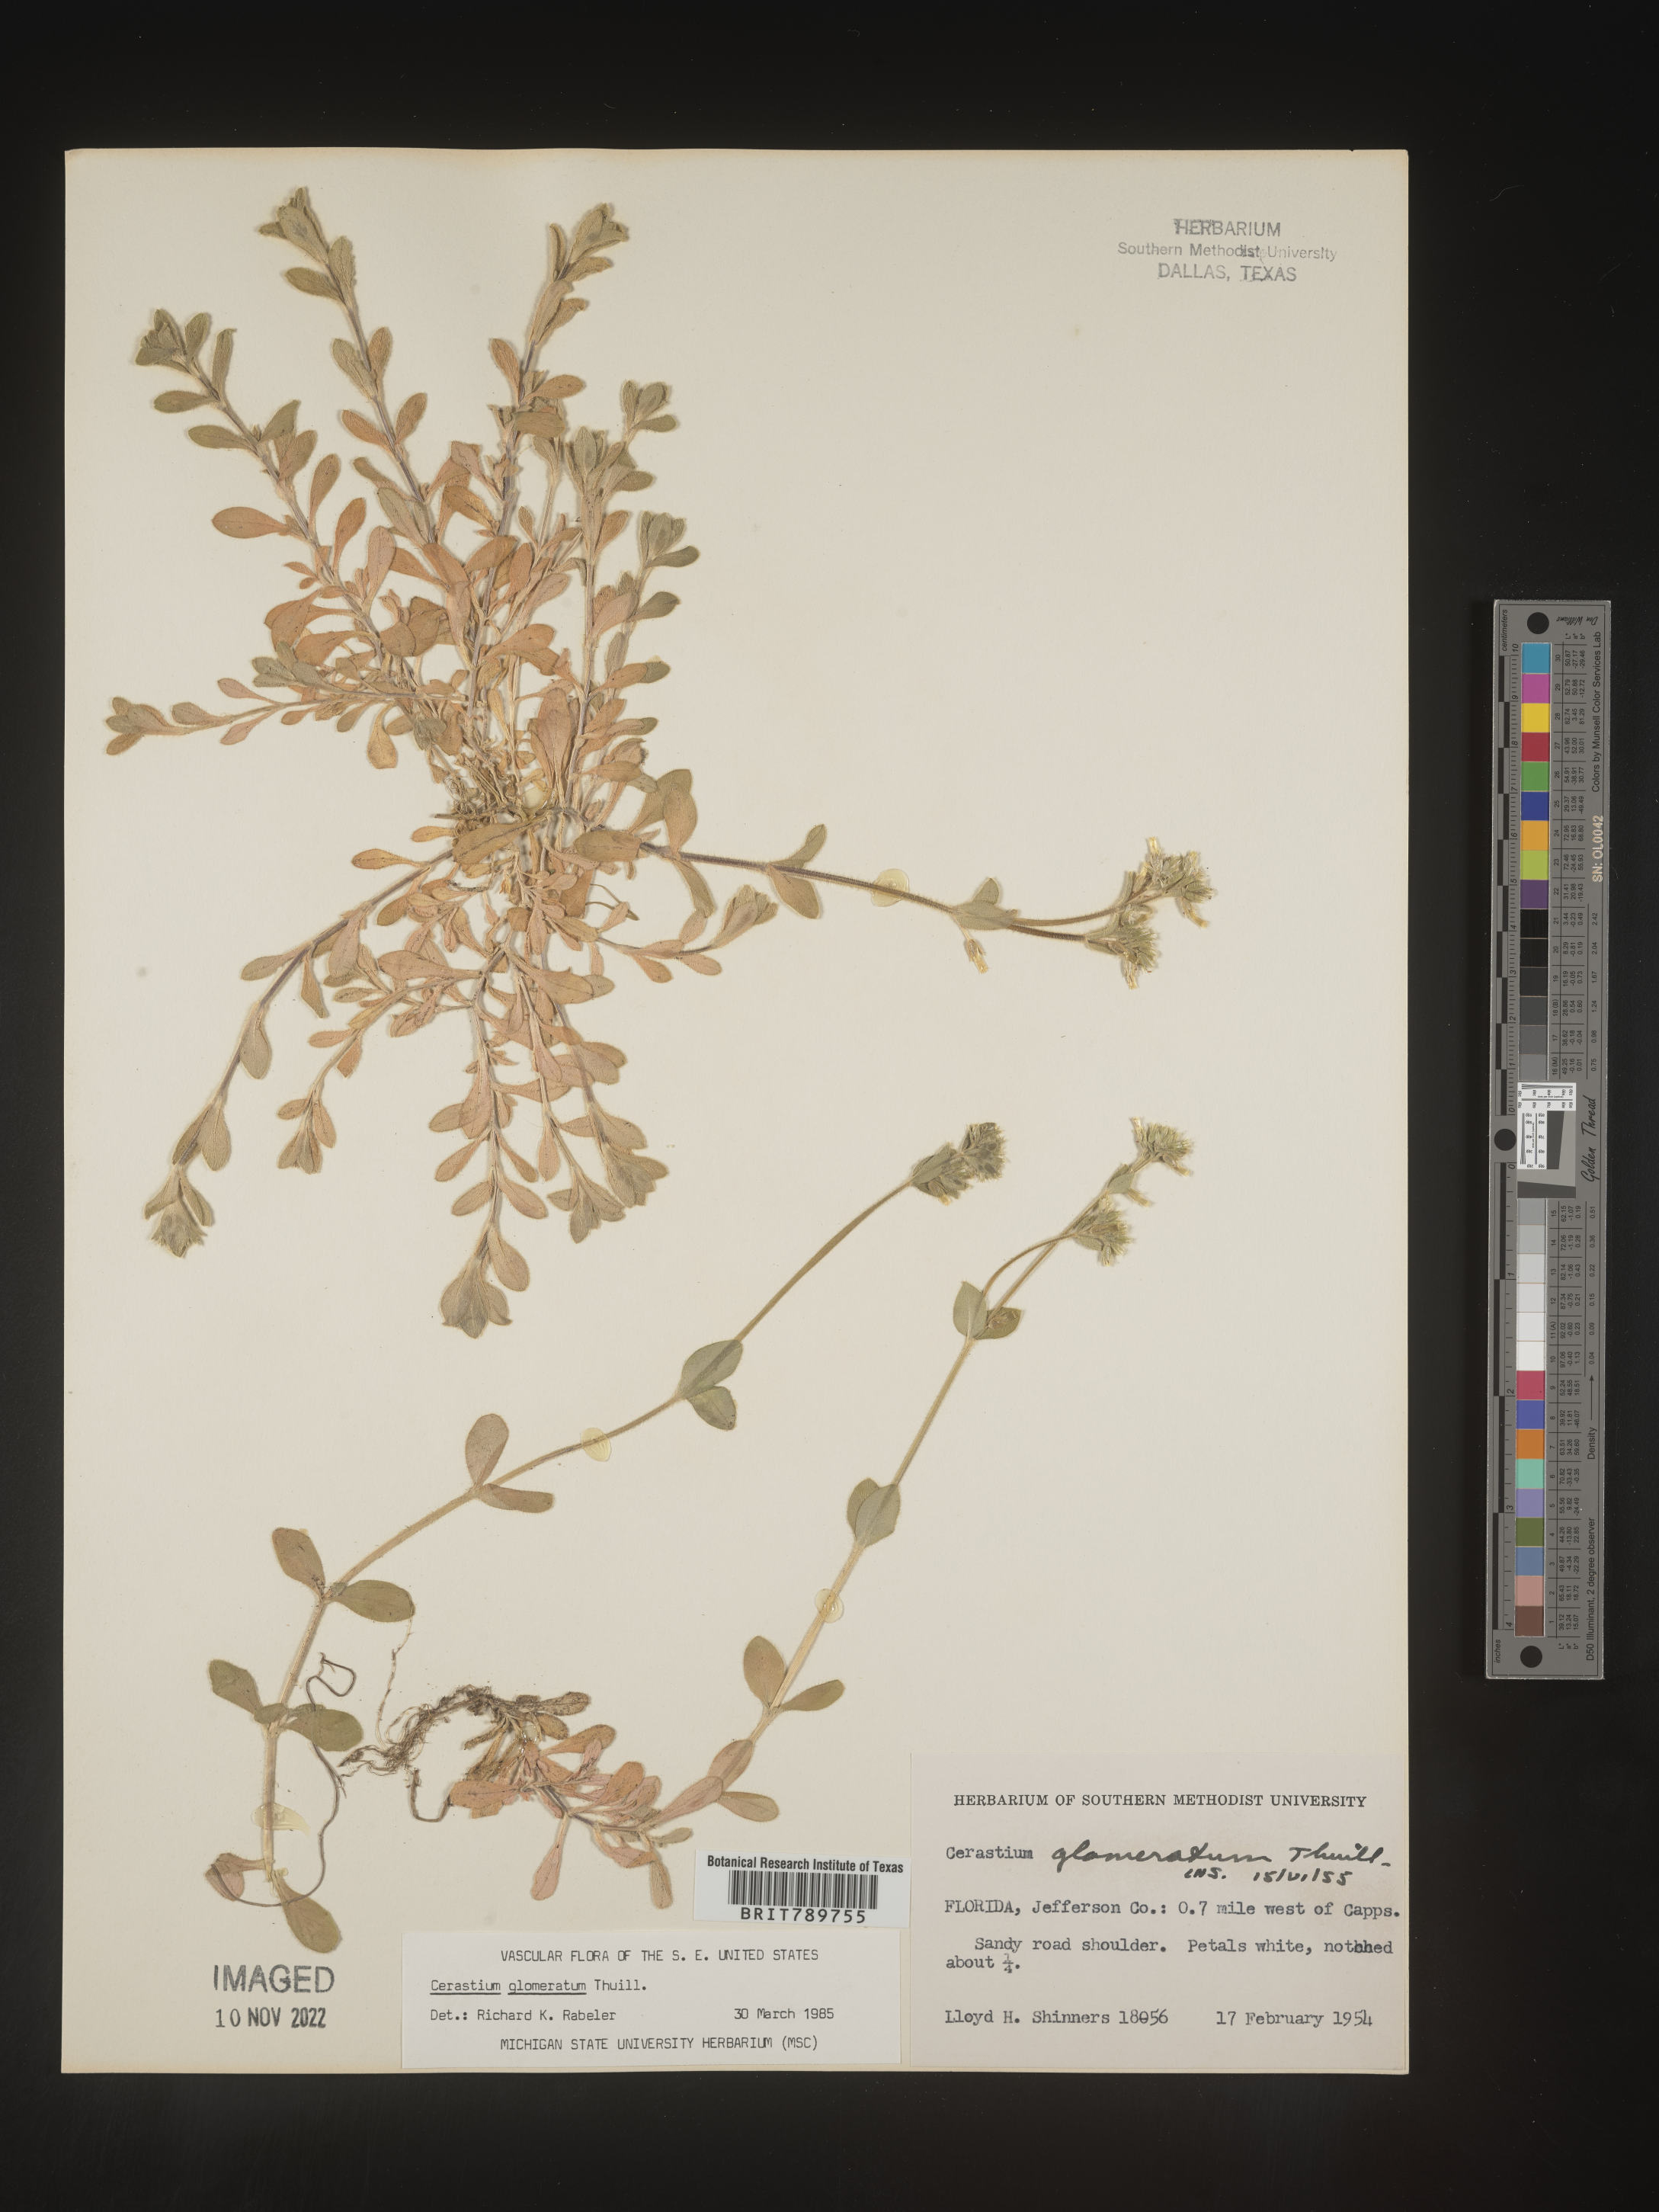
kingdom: Plantae
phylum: Tracheophyta
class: Magnoliopsida
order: Caryophyllales
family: Caryophyllaceae
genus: Cerastium
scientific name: Cerastium glomeratum
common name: Sticky chickweed
